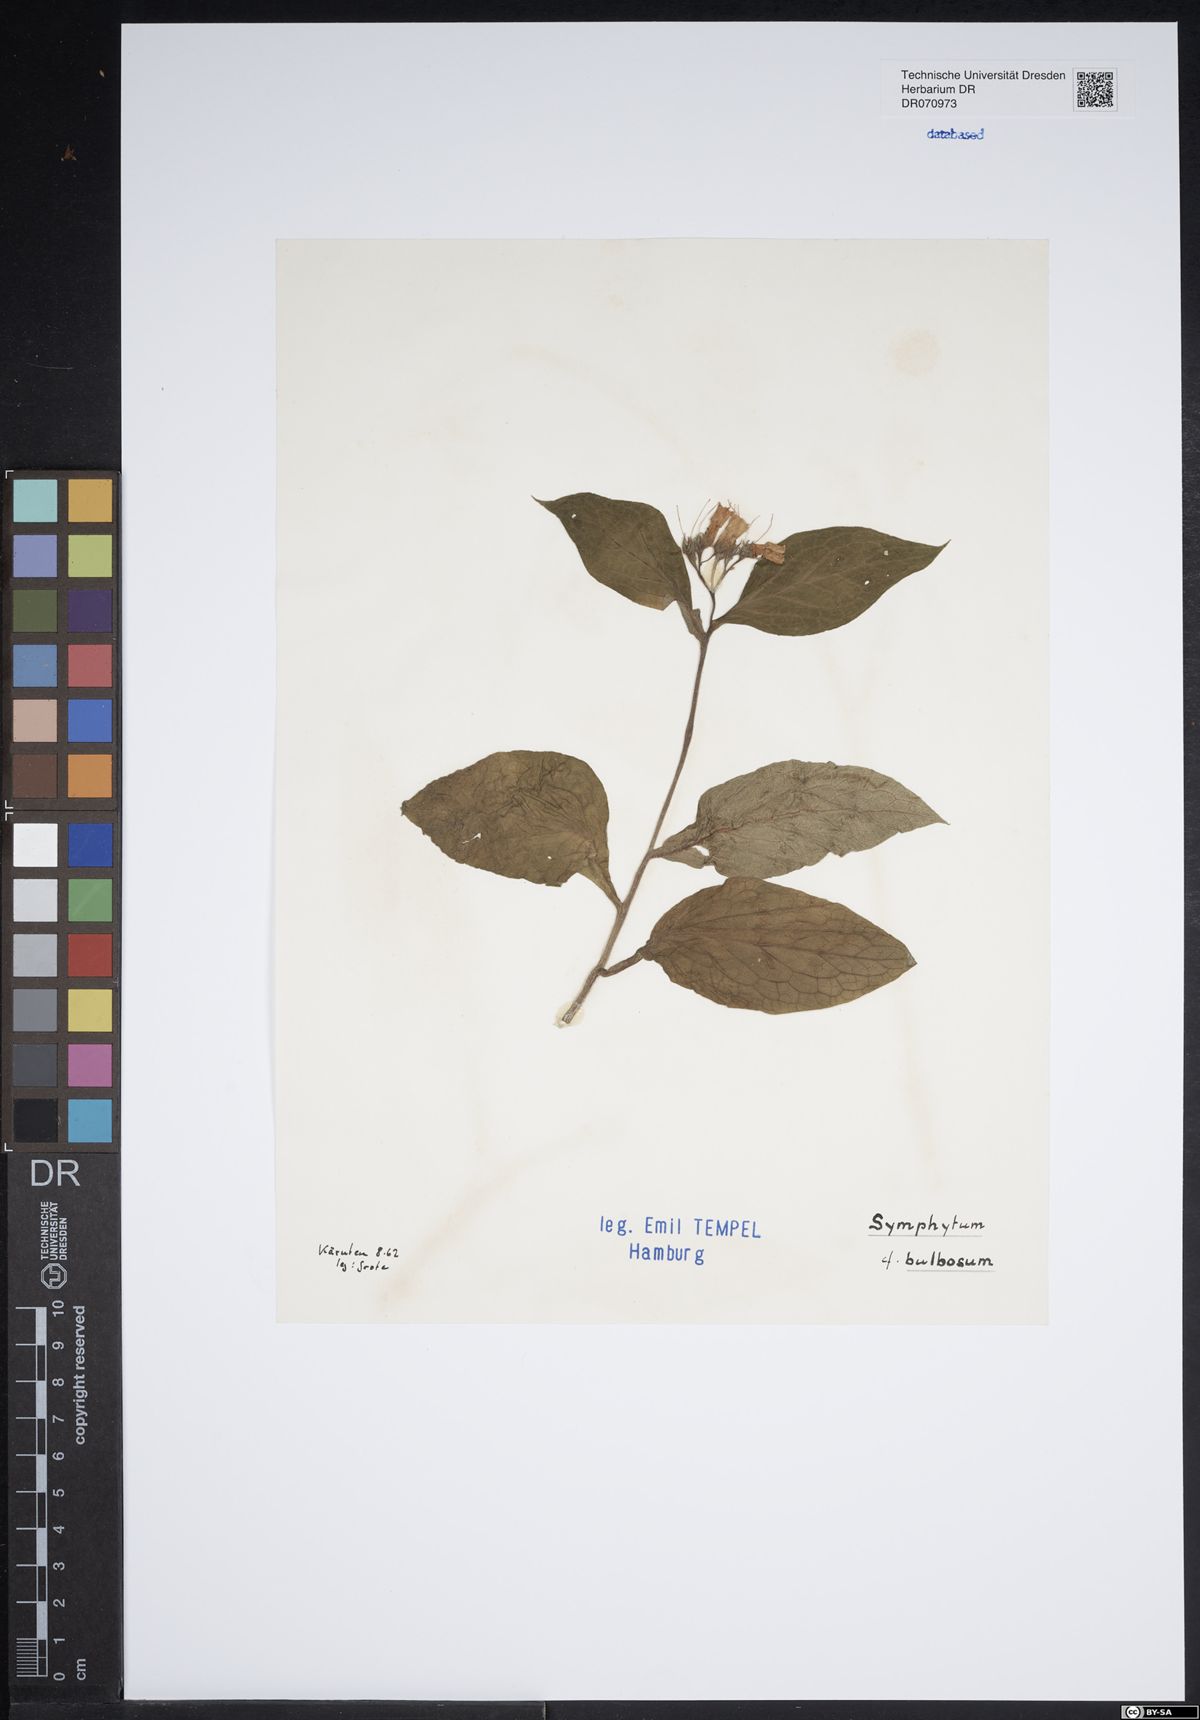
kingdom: Plantae
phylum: Tracheophyta
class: Magnoliopsida
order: Boraginales
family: Boraginaceae
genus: Symphytum
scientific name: Symphytum bulbosum
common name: Bulbous comfrey
